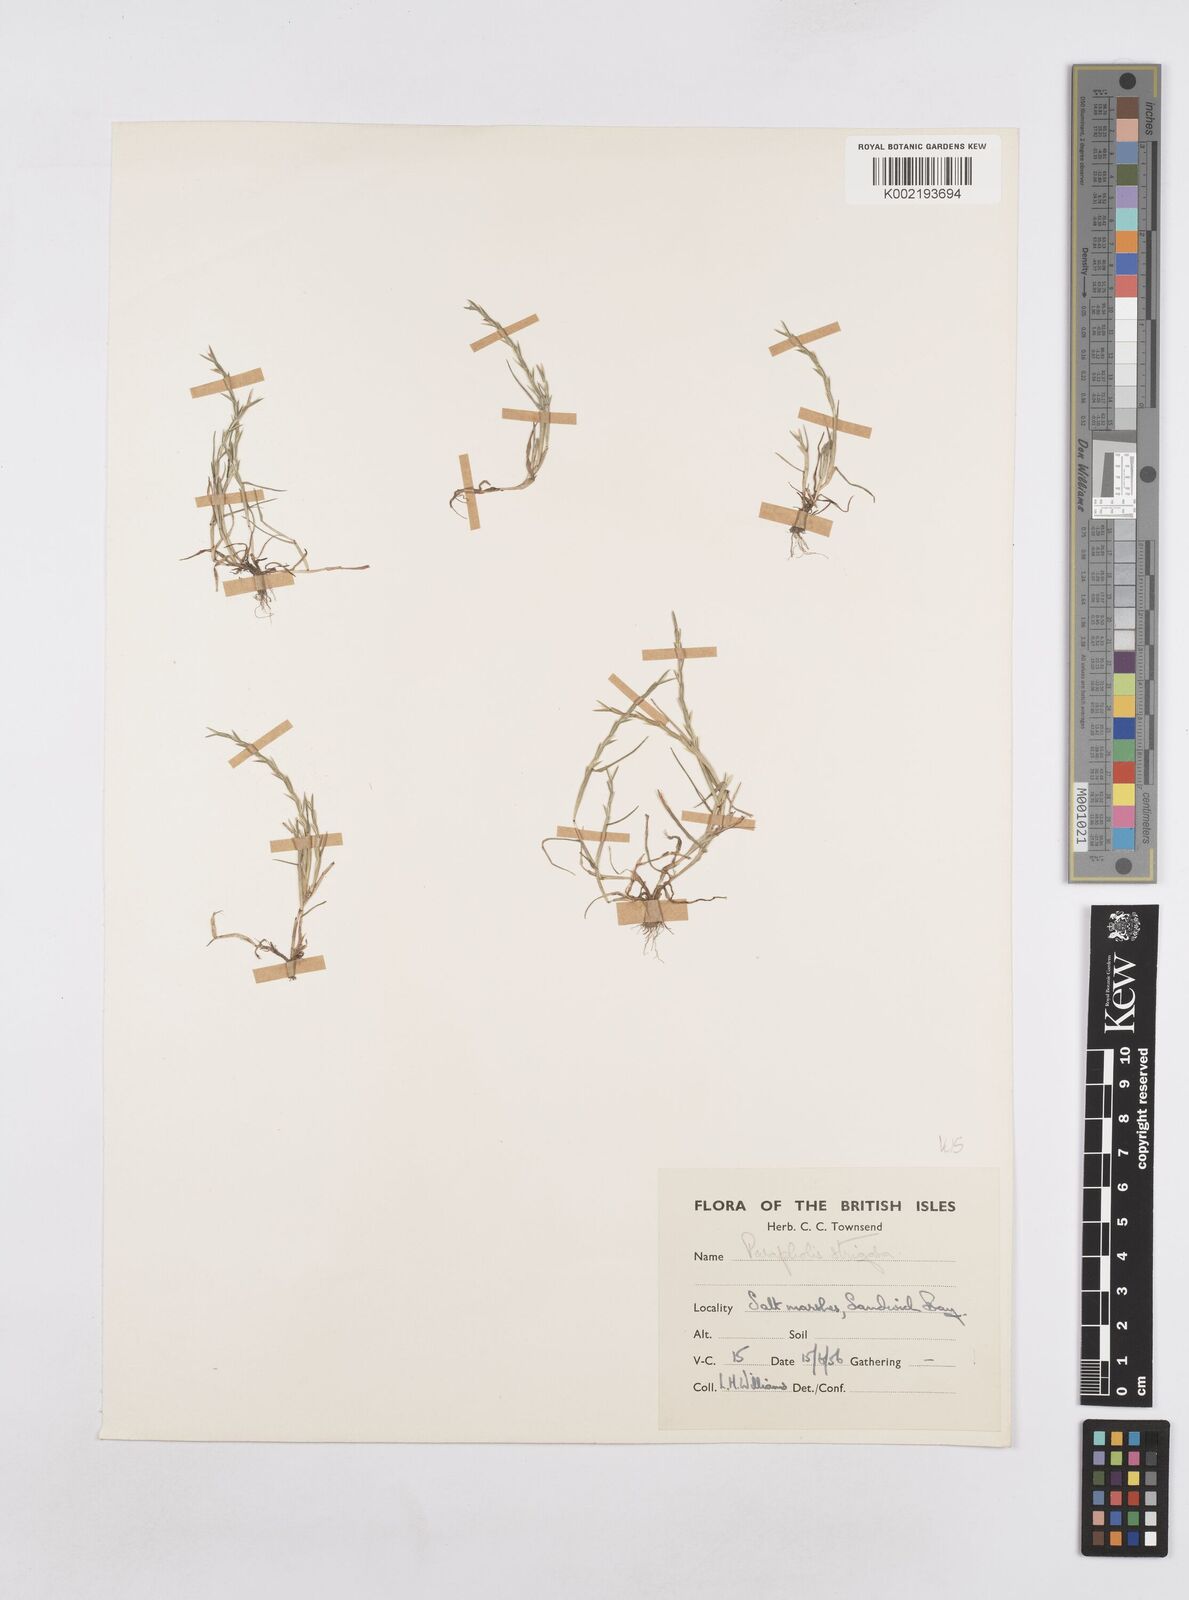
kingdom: Plantae
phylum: Tracheophyta
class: Liliopsida
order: Poales
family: Poaceae
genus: Parapholis
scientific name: Parapholis strigosa
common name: Hard-grass
